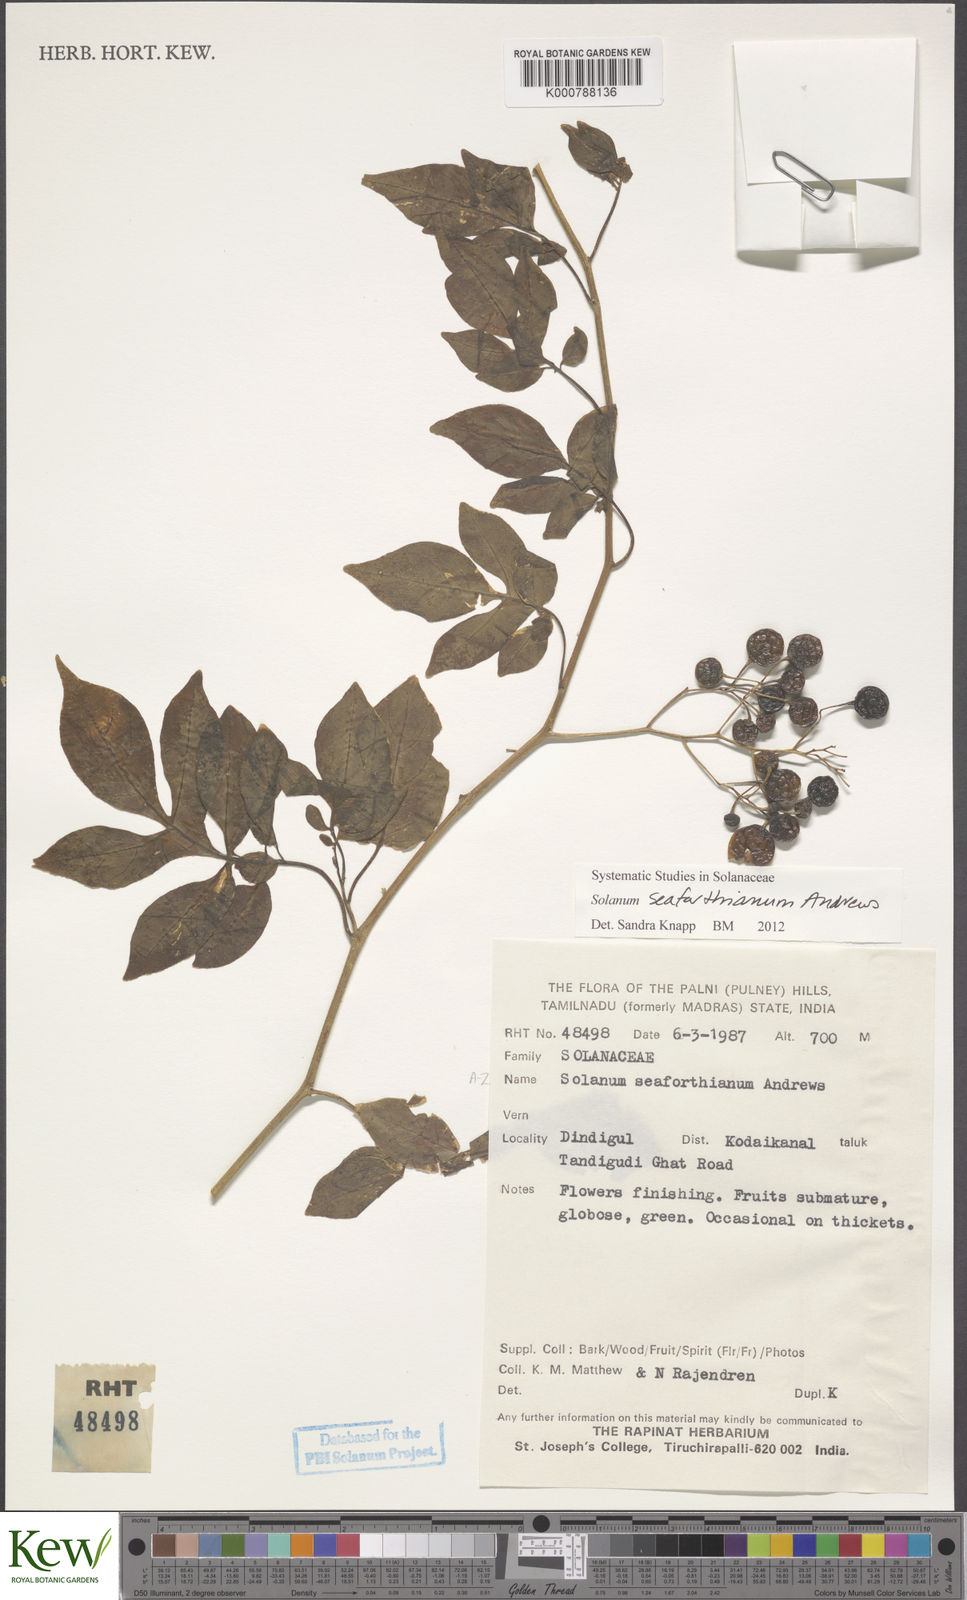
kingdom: Plantae
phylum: Tracheophyta
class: Magnoliopsida
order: Solanales
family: Solanaceae
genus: Solanum
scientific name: Solanum seaforthianum
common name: Brazilian nightshade
